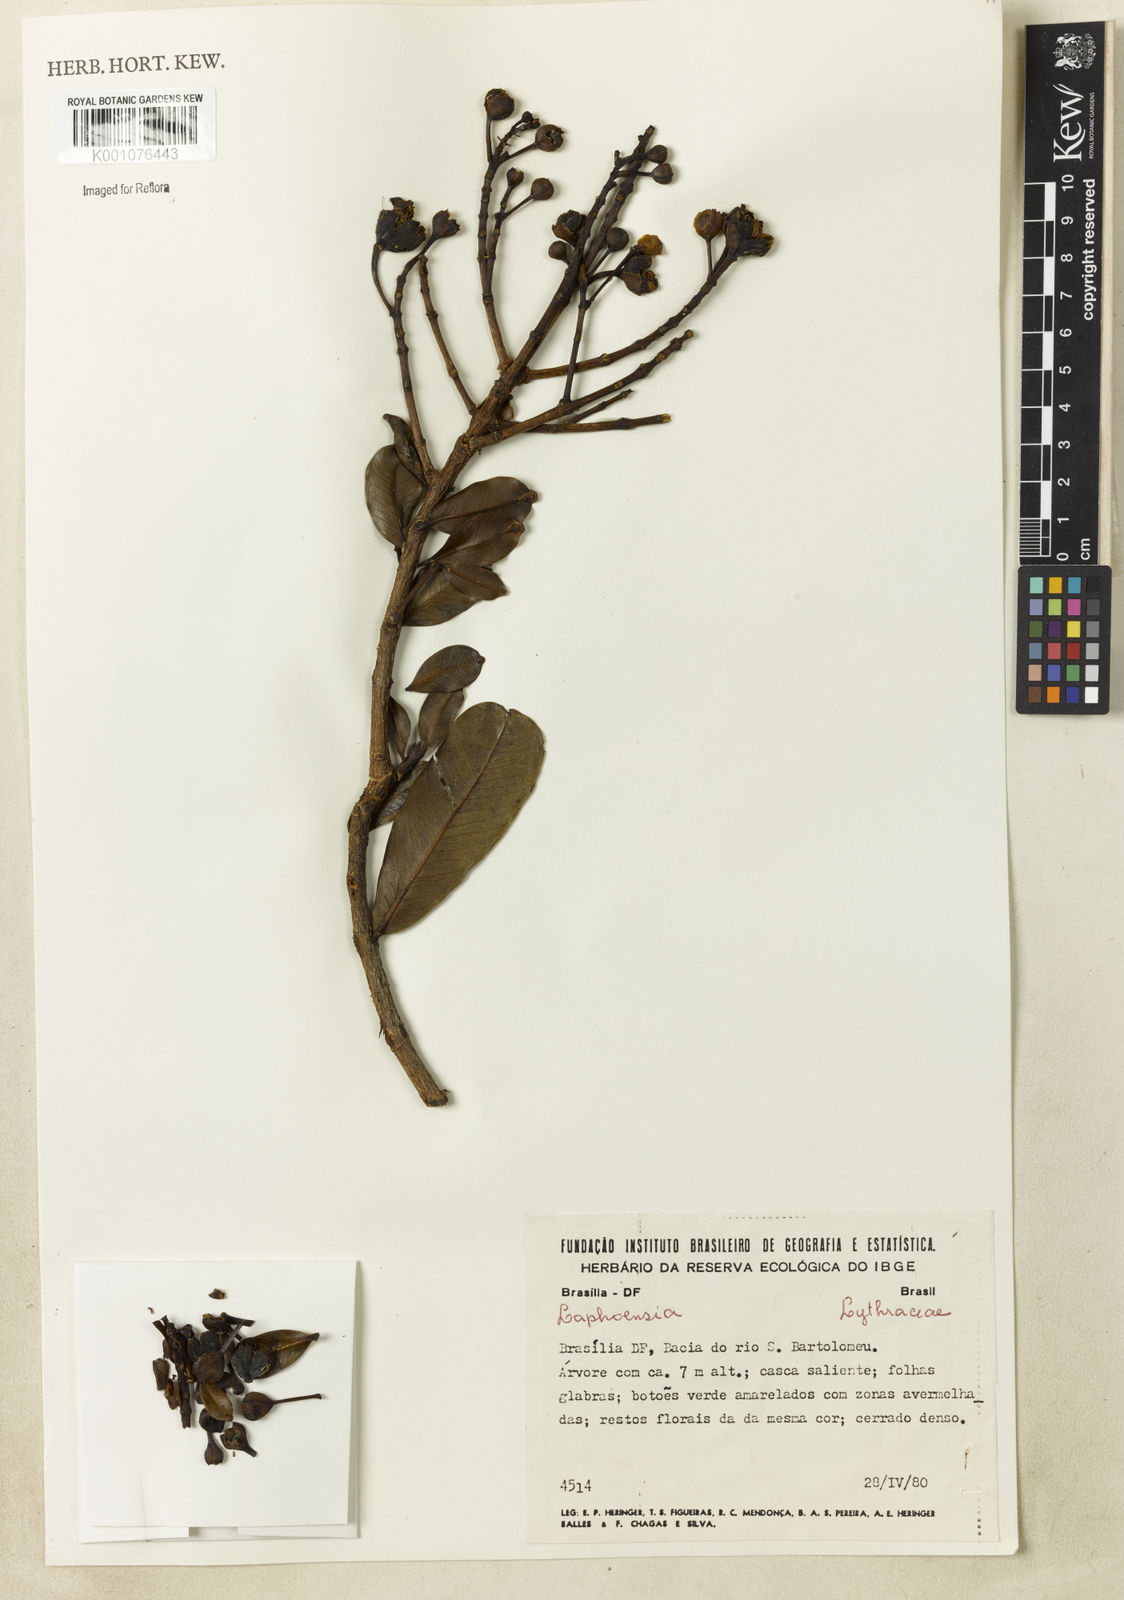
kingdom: Plantae
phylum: Tracheophyta
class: Magnoliopsida
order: Myrtales
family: Lythraceae
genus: Lafoensia
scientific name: Lafoensia
